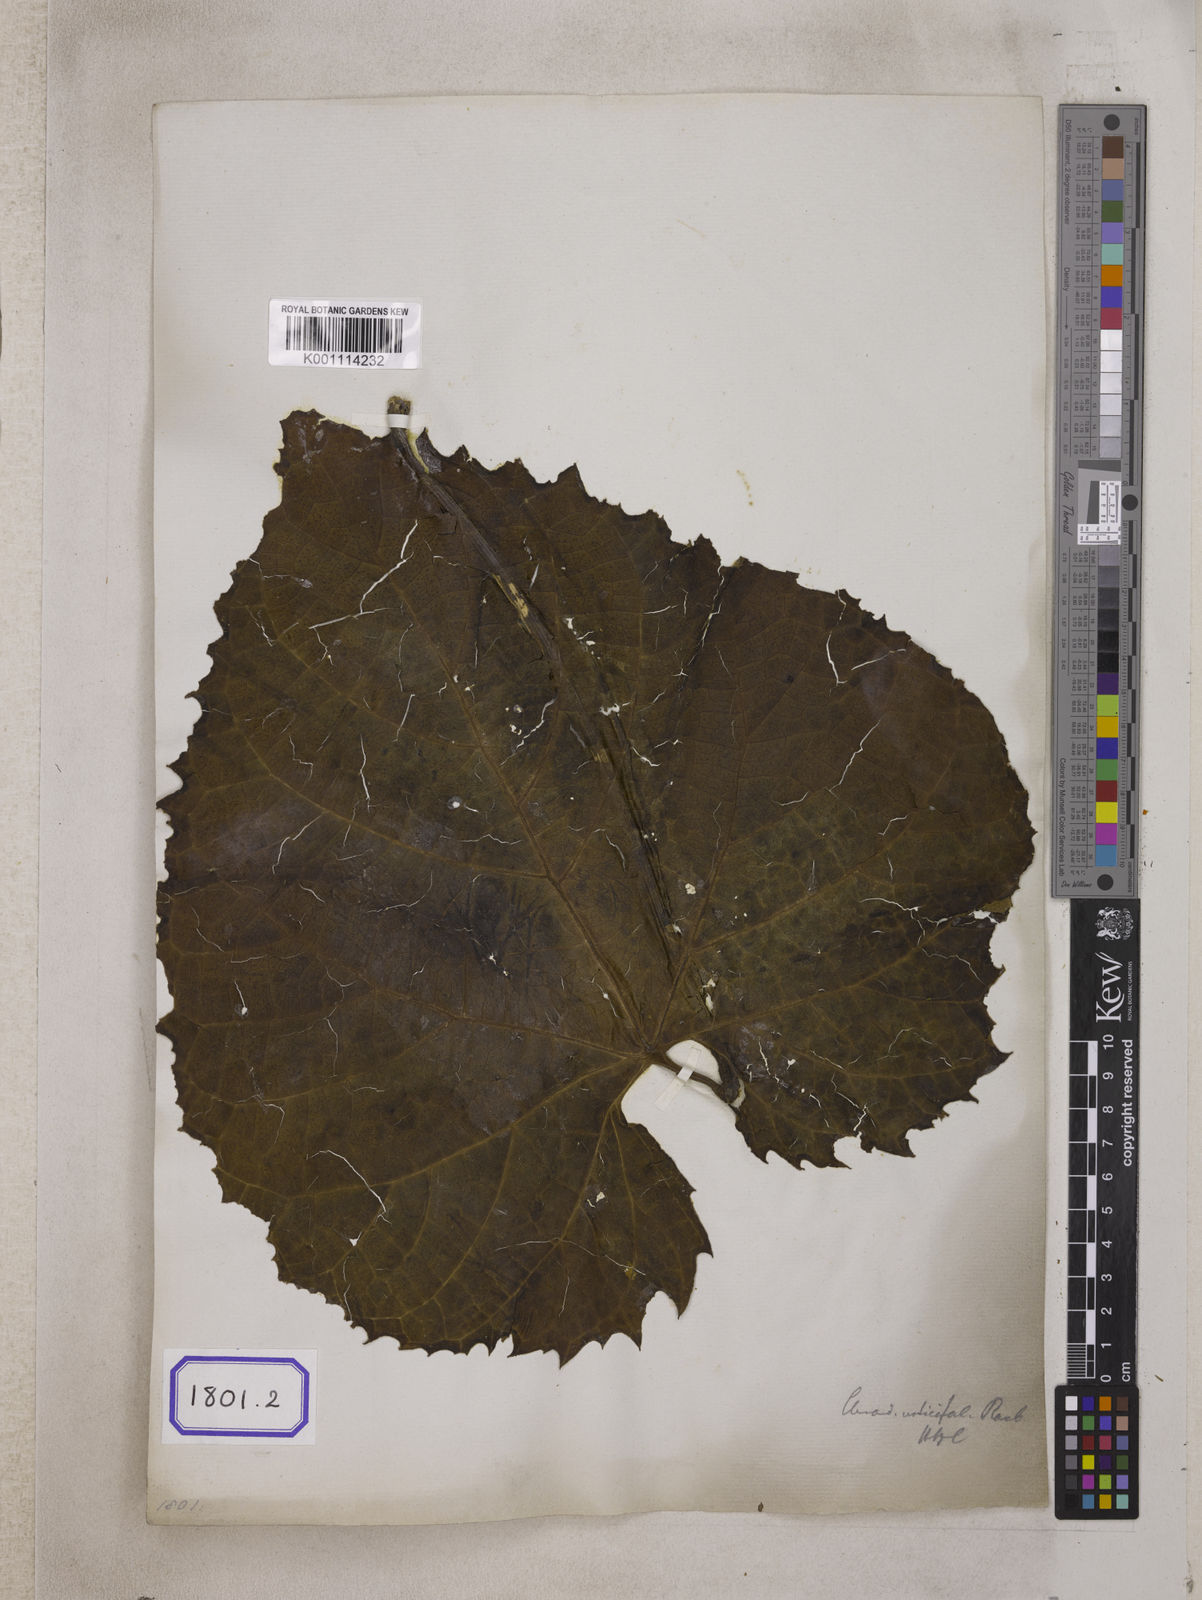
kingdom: Plantae
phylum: Tracheophyta
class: Magnoliopsida
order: Lamiales
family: Lamiaceae
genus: Clerodendrum
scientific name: Clerodendrum
